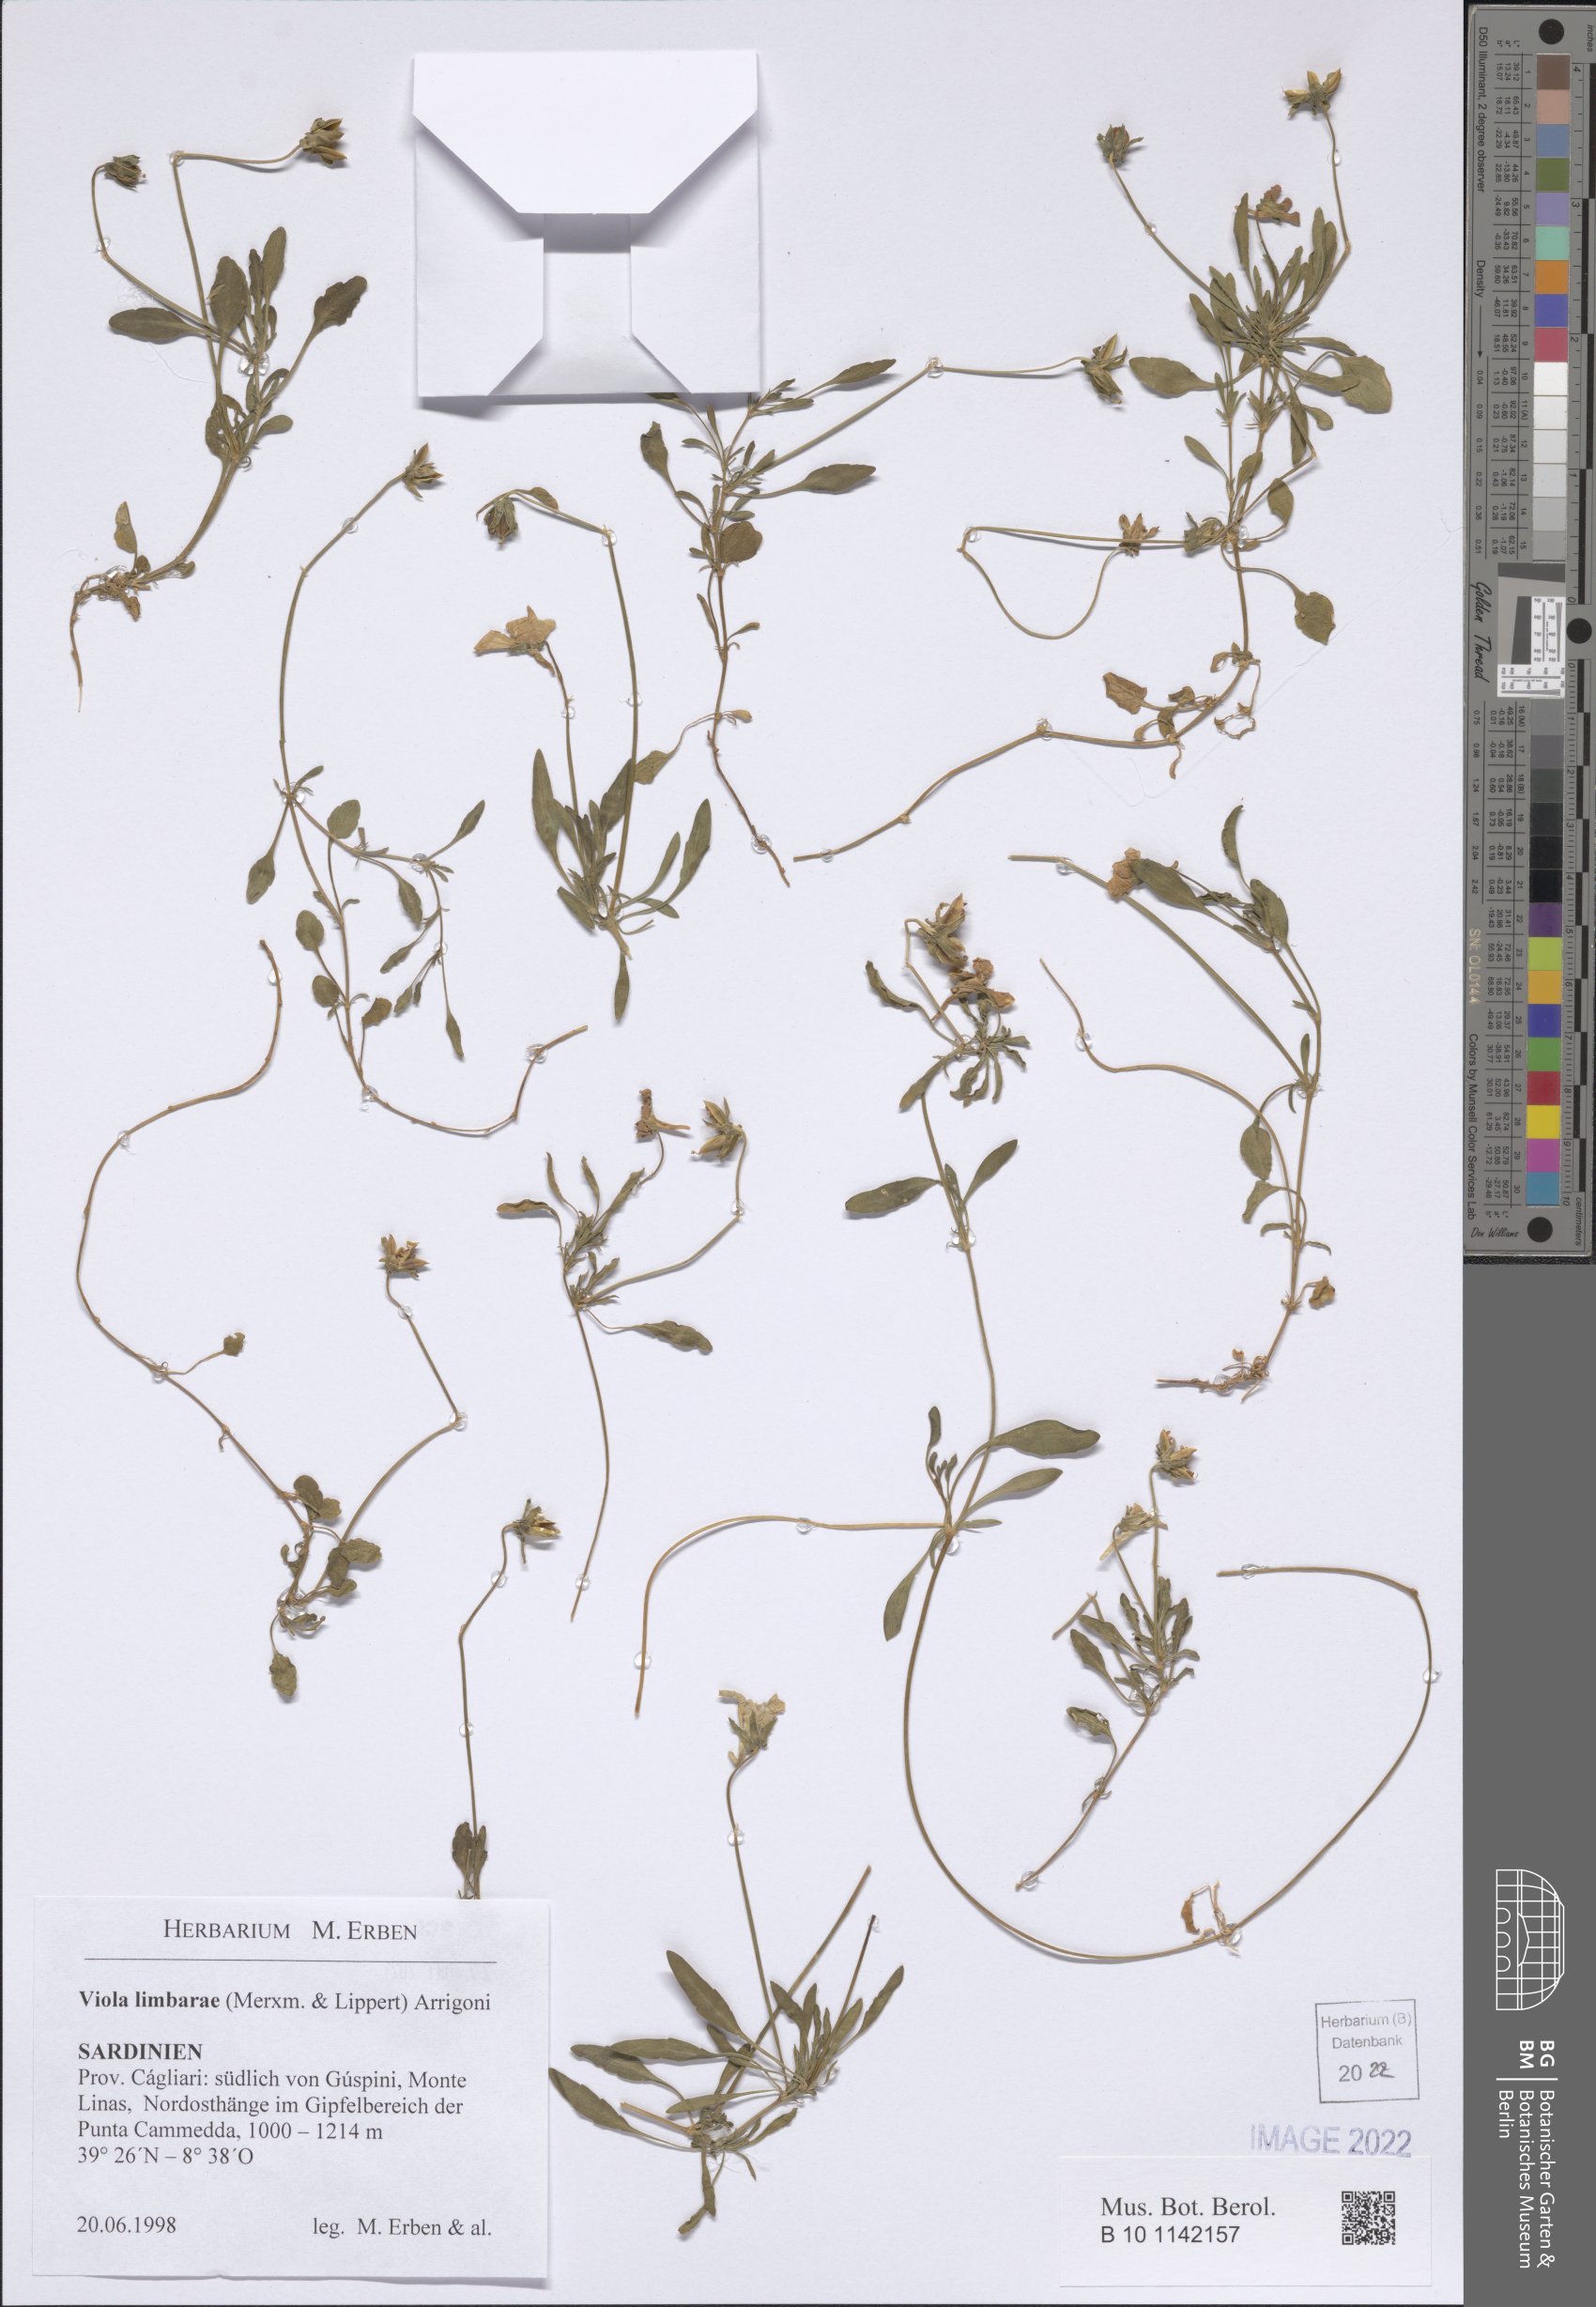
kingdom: Plantae
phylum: Tracheophyta
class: Magnoliopsida
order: Malpighiales
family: Violaceae
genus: Viola
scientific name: Viola corsica
